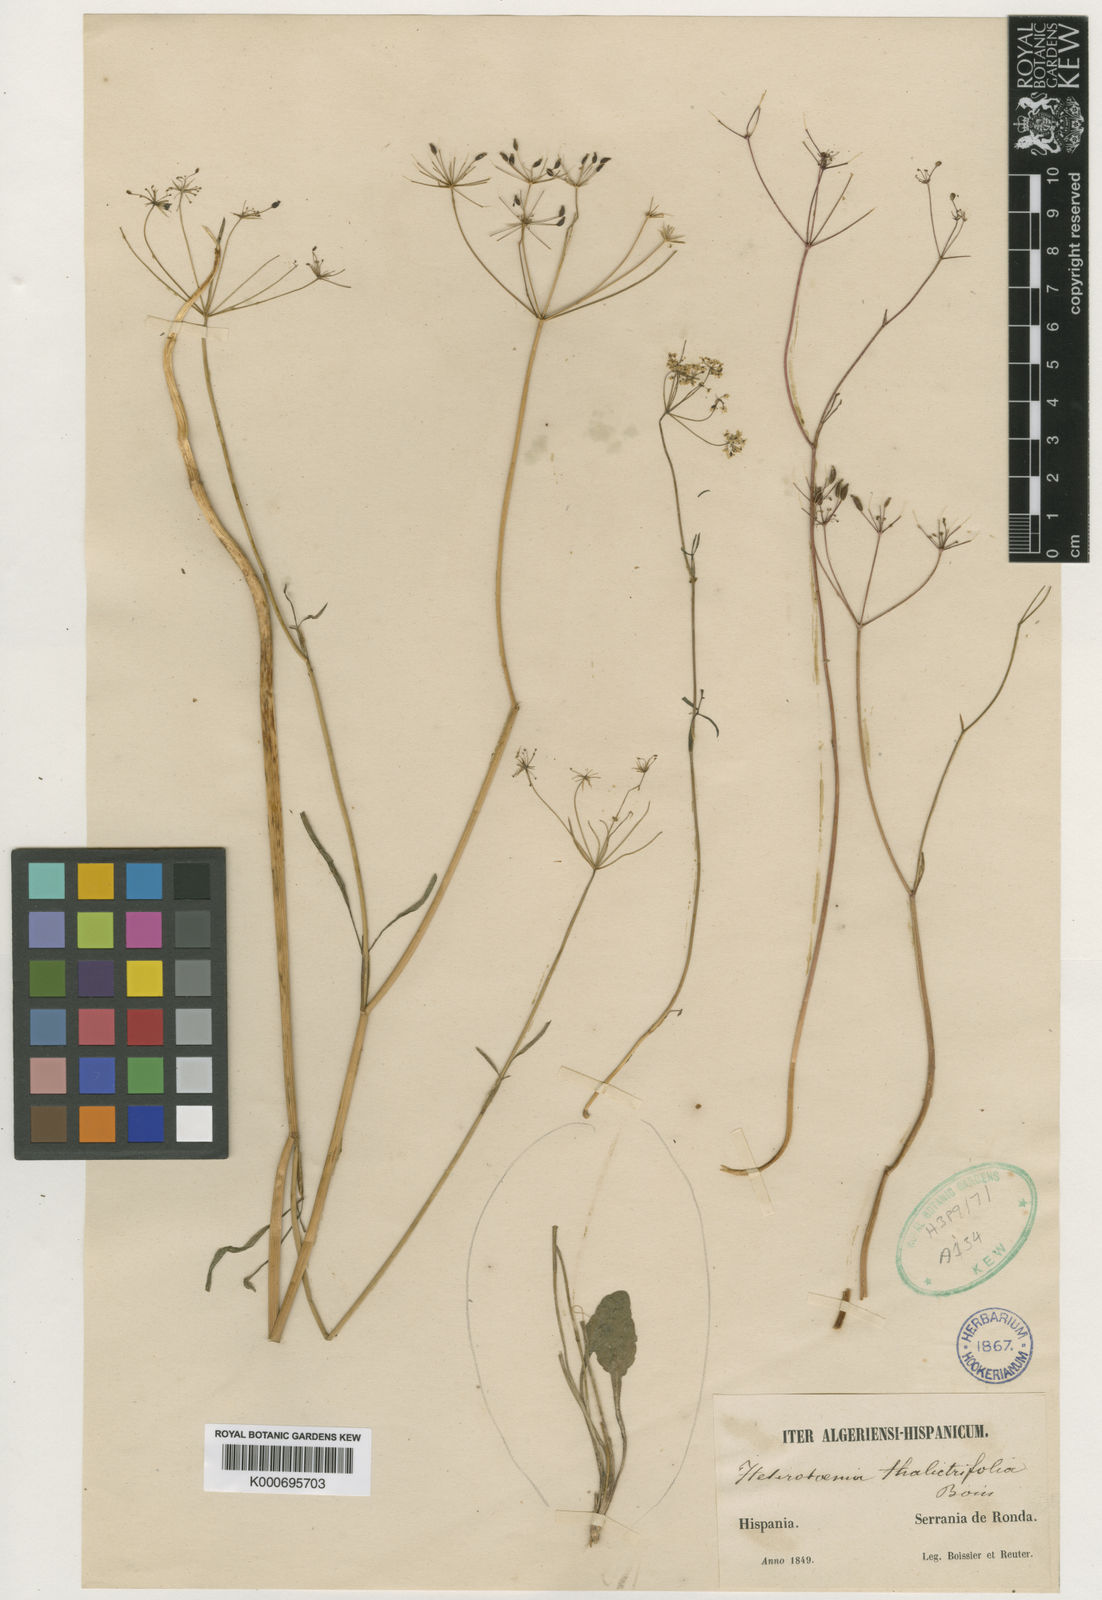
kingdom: Plantae
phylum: Tracheophyta
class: Magnoliopsida
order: Apiales
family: Apiaceae
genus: Conopodium
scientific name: Conopodium thalictrifolium
